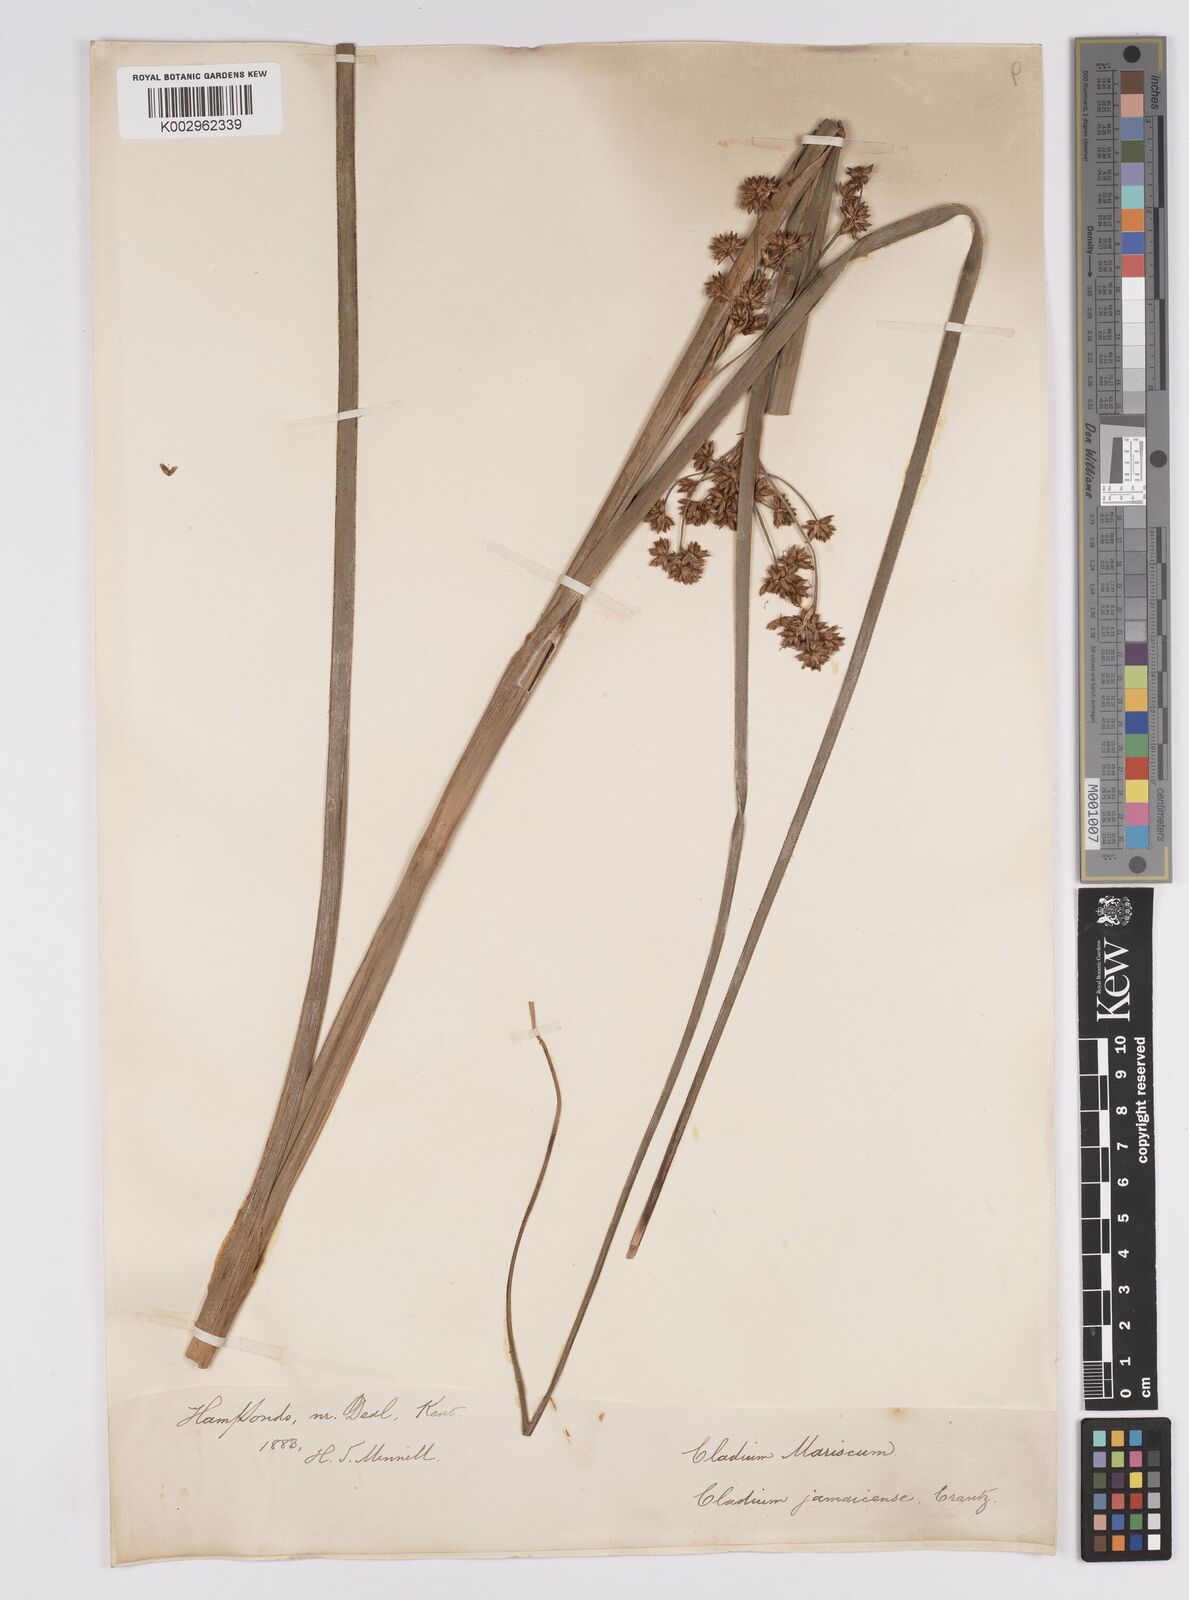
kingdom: Plantae
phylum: Tracheophyta
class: Liliopsida
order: Poales
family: Cyperaceae
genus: Cladium
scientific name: Cladium mariscus
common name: Great fen-sedge
